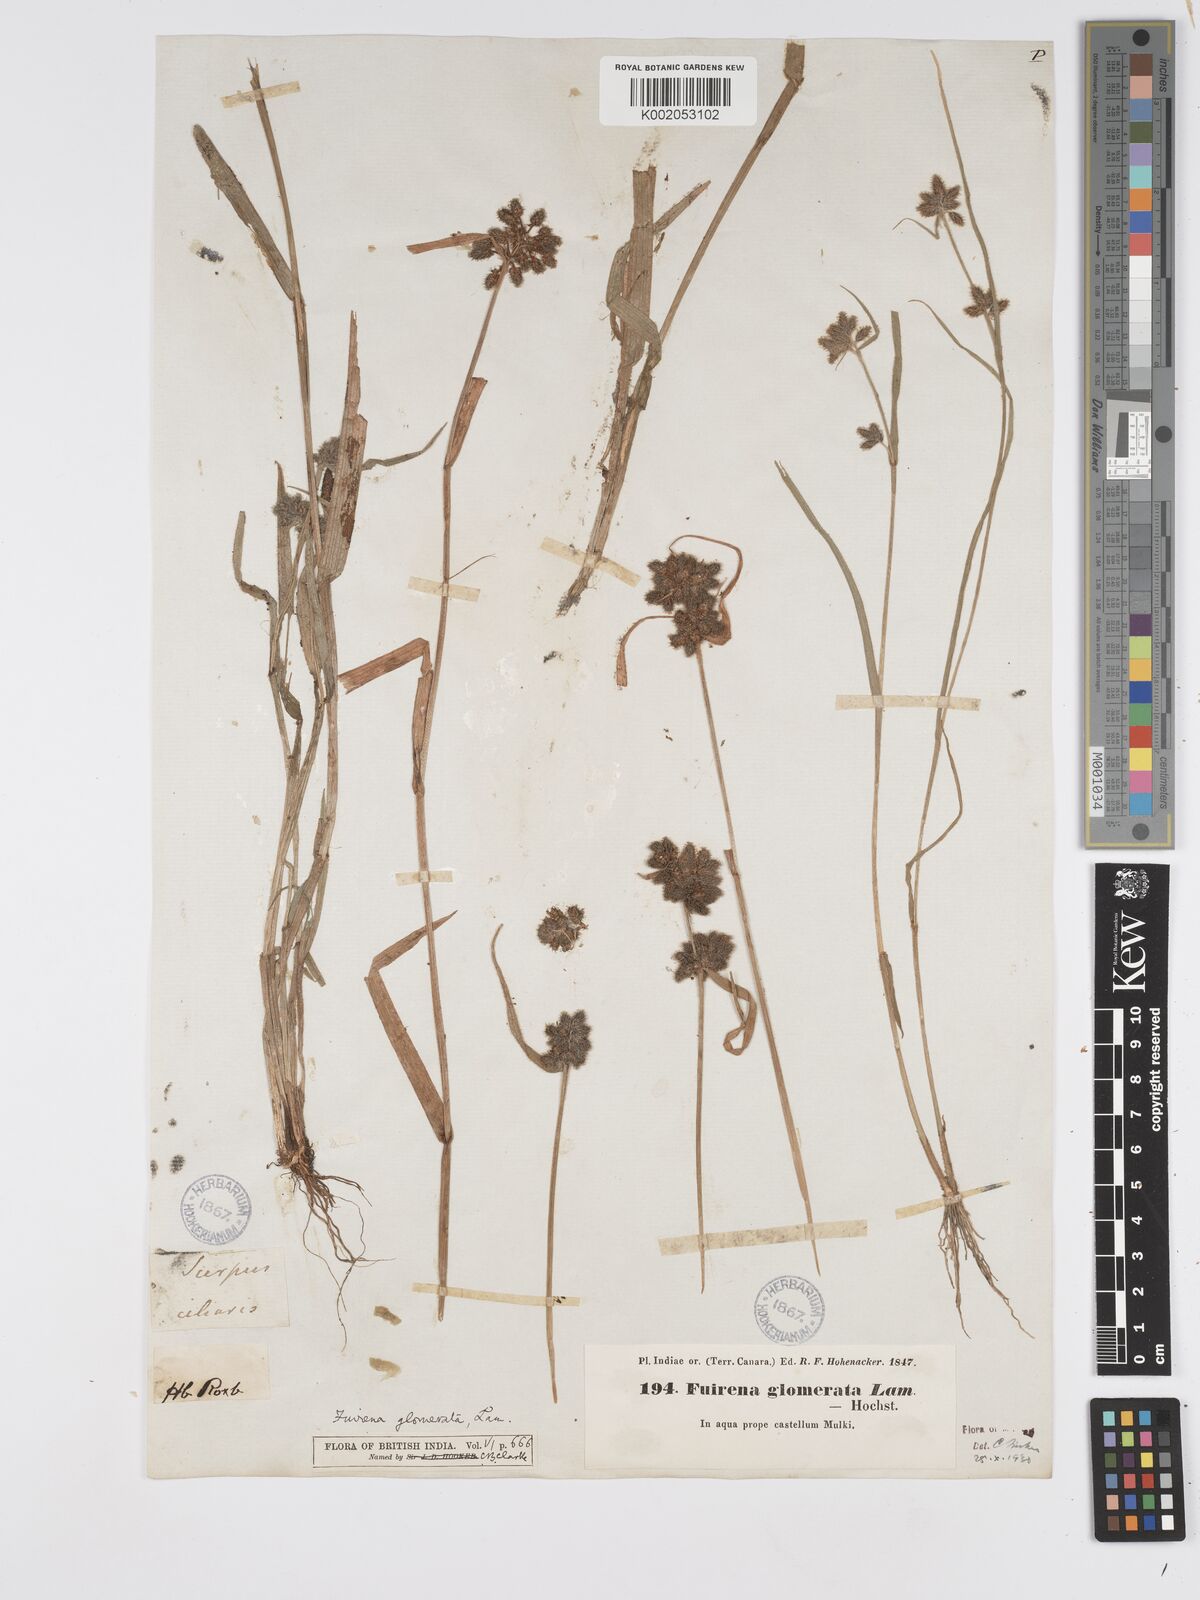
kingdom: Plantae
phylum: Tracheophyta
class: Liliopsida
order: Poales
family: Cyperaceae
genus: Fuirena
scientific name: Fuirena ciliaris
